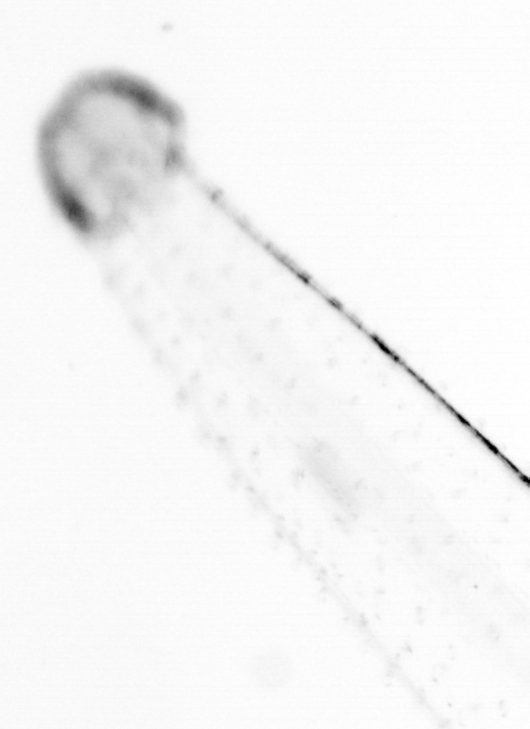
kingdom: Animalia
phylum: Chaetognatha
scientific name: Chaetognatha
